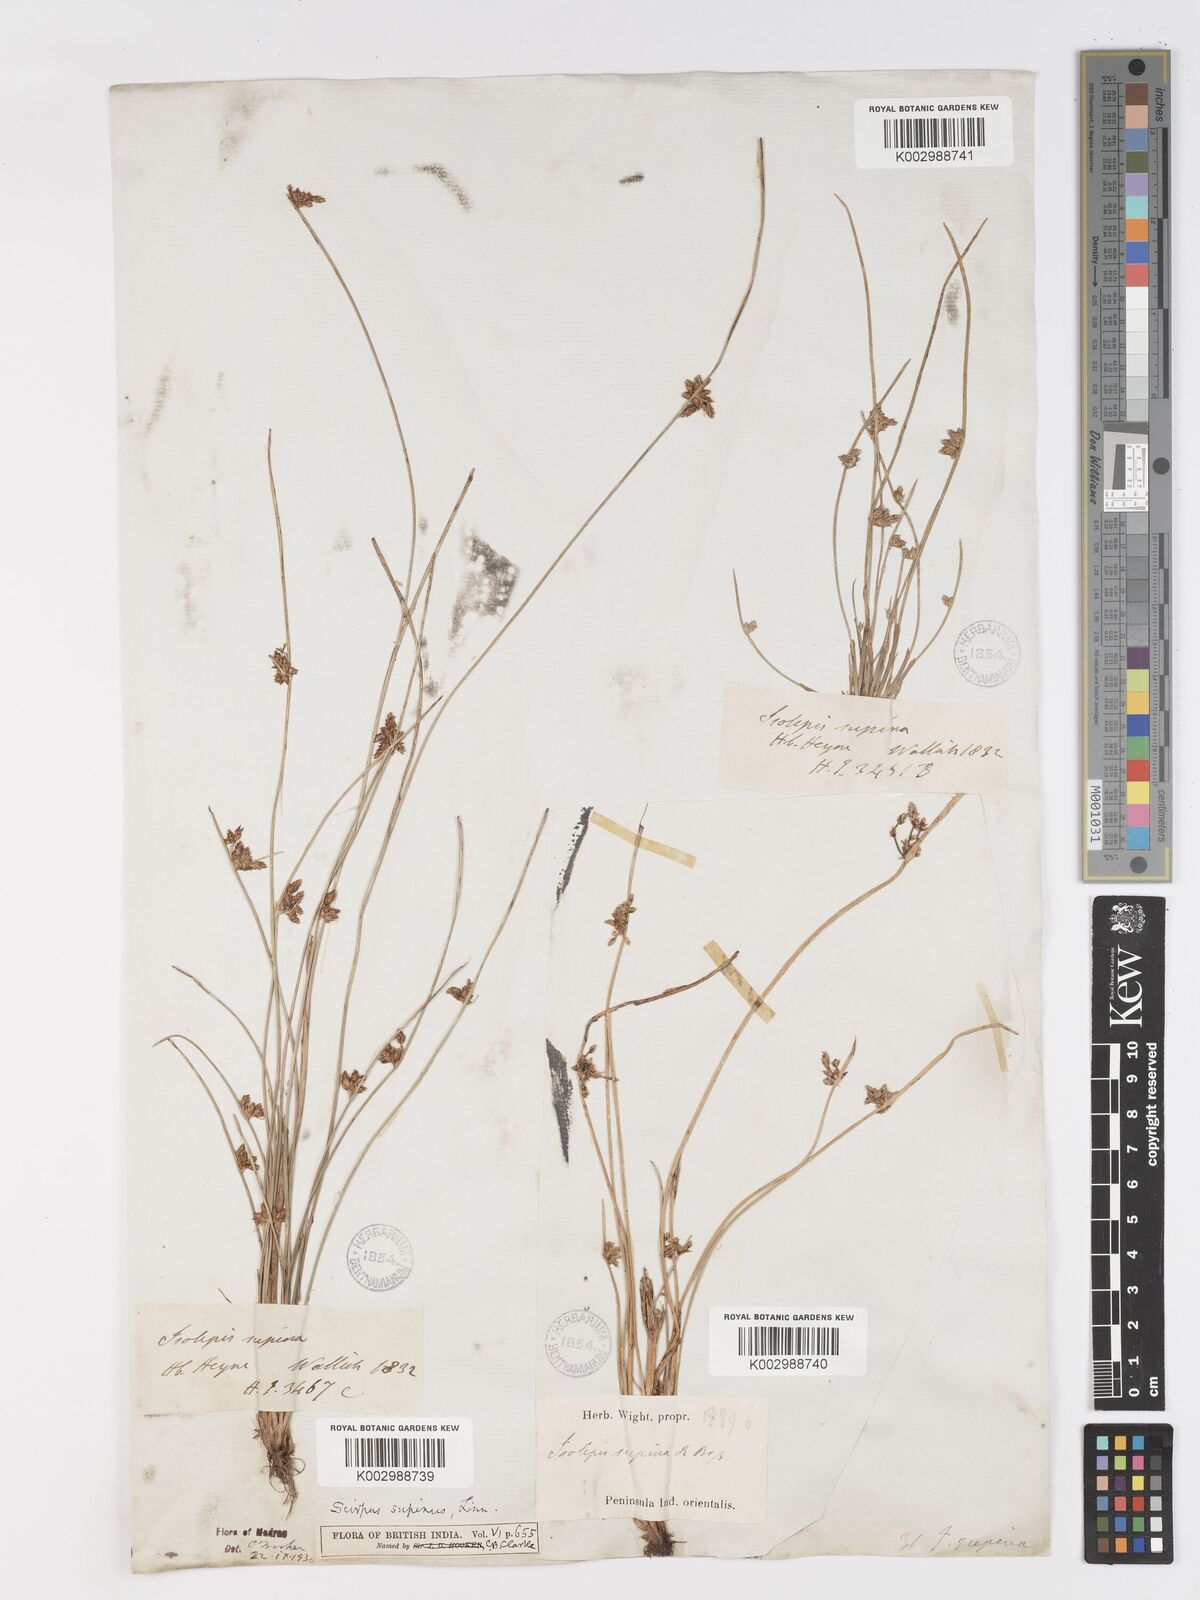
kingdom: Plantae
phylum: Tracheophyta
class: Liliopsida
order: Poales
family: Cyperaceae
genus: Schoenoplectiella
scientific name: Schoenoplectiella lateriflora
